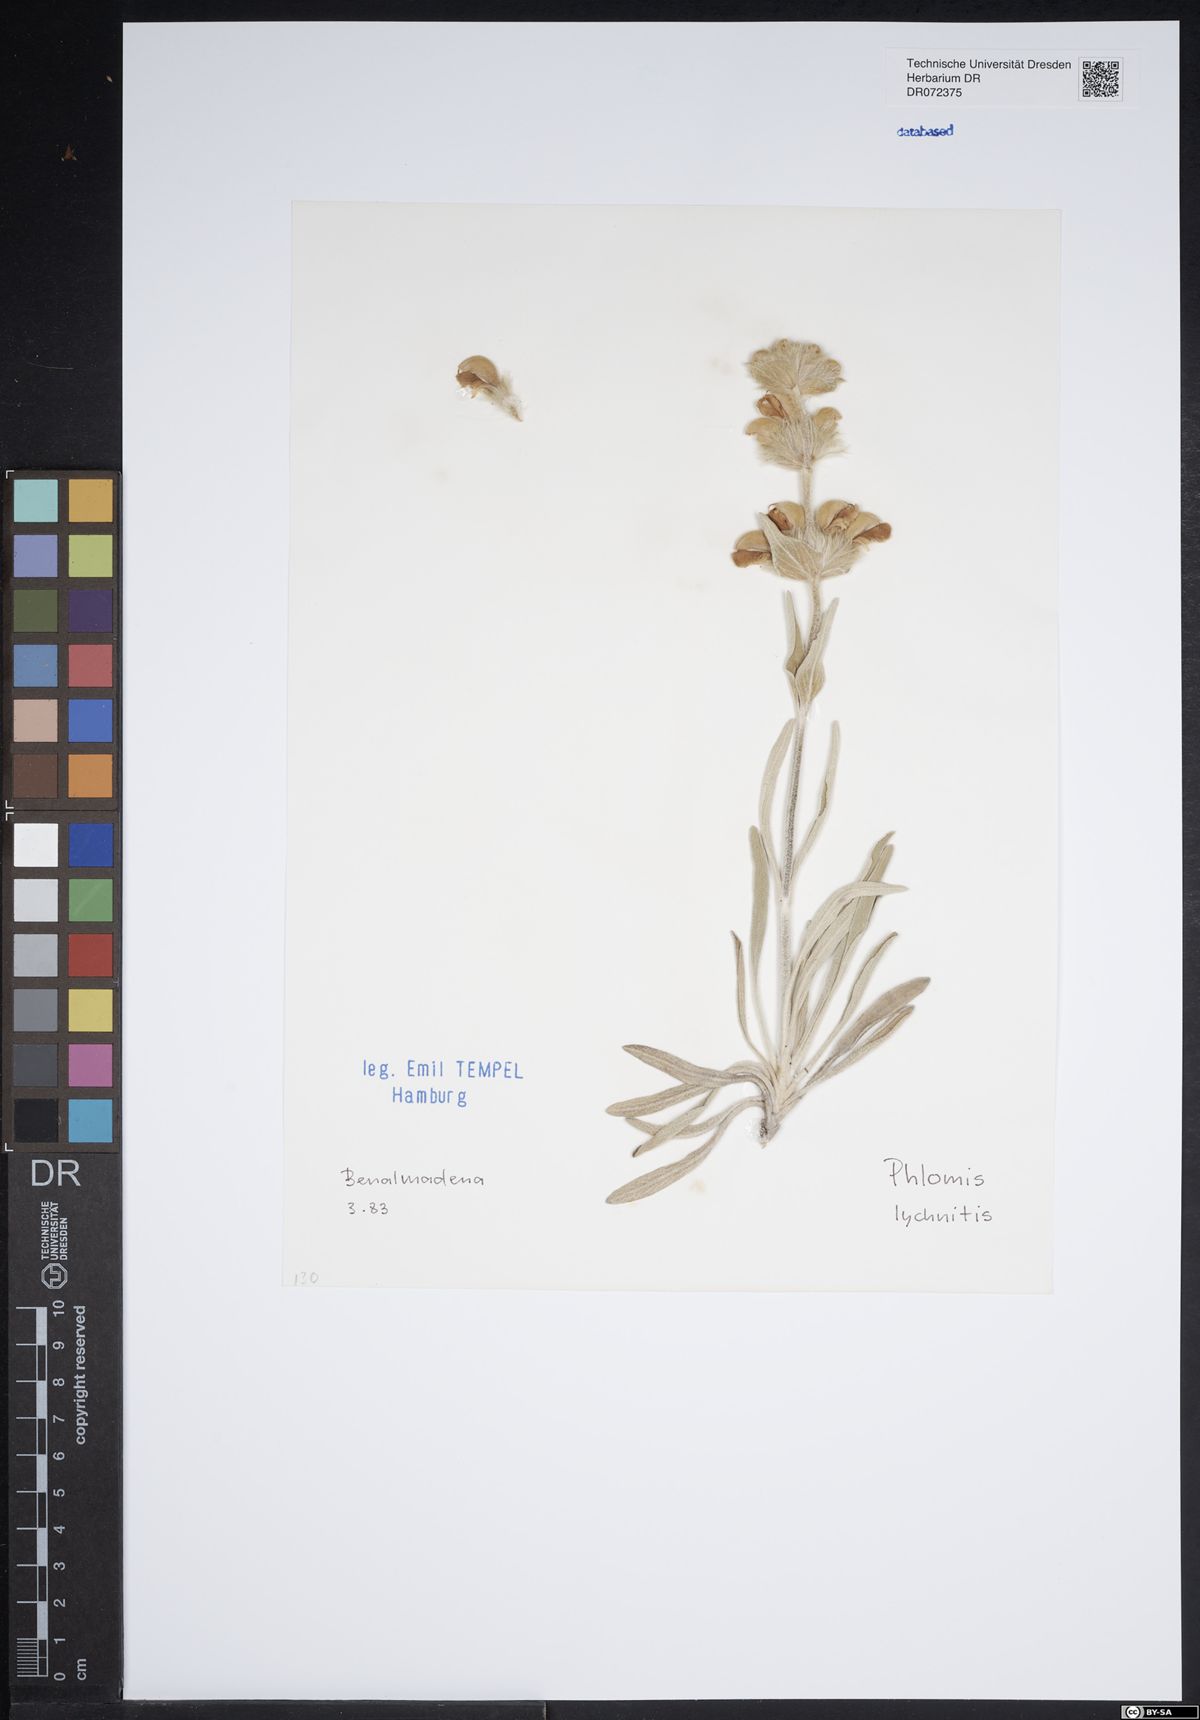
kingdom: Plantae
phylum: Tracheophyta
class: Magnoliopsida
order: Lamiales
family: Lamiaceae
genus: Phlomis
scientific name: Phlomis lychnitis
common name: Lampwickplant
